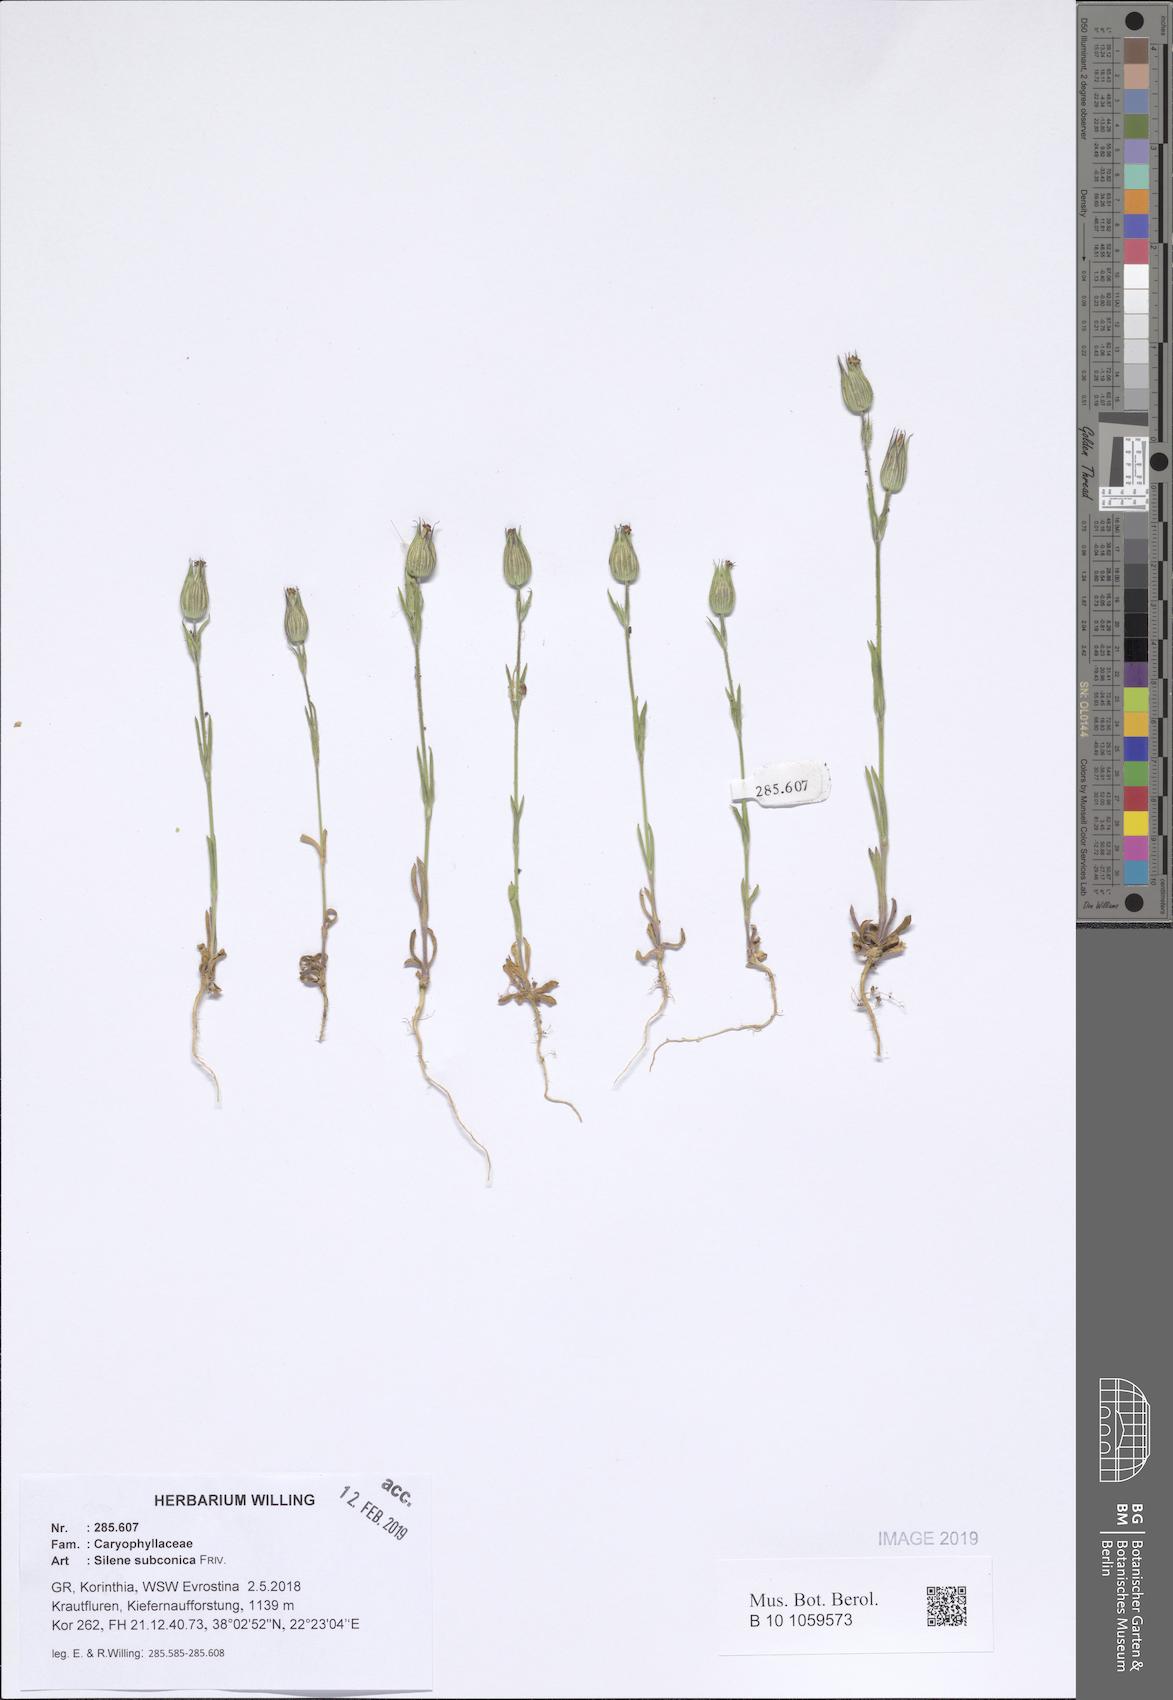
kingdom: Plantae
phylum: Tracheophyta
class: Magnoliopsida
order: Caryophyllales
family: Caryophyllaceae
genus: Silene
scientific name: Silene subconica
